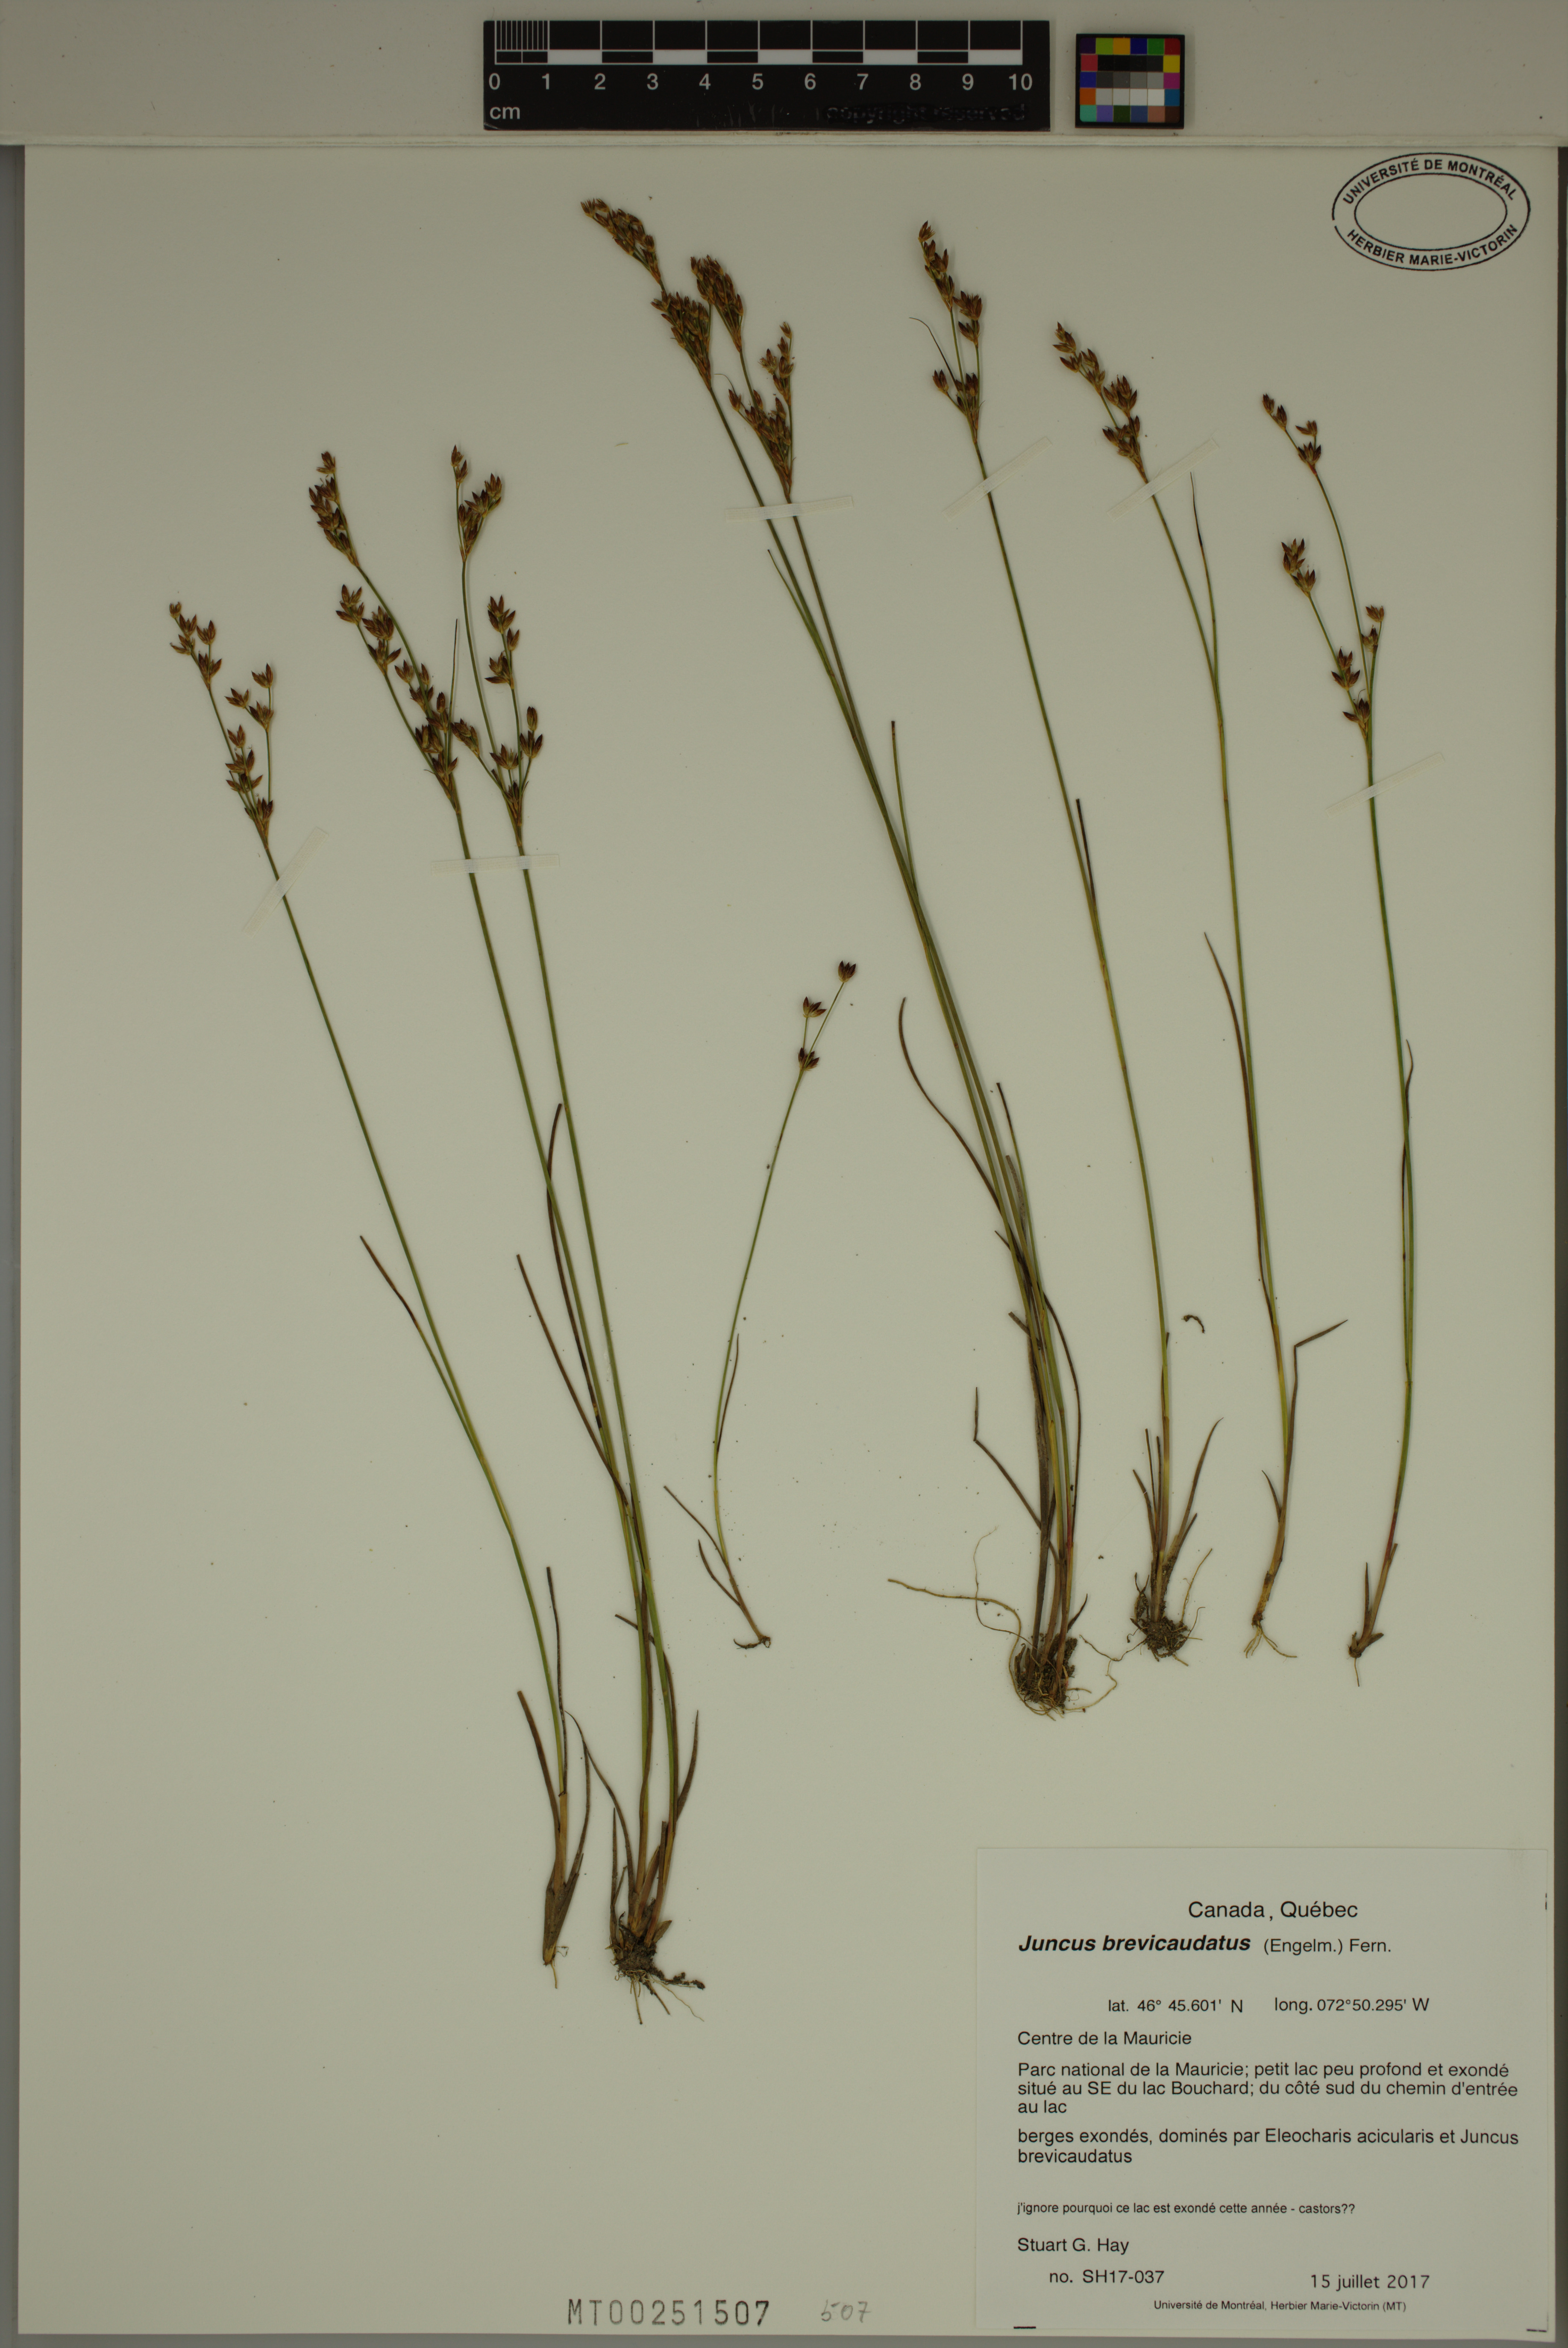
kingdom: Plantae
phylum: Tracheophyta
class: Liliopsida
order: Poales
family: Juncaceae
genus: Juncus
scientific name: Juncus brevicaudatus
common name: Narrow-panicle rush
